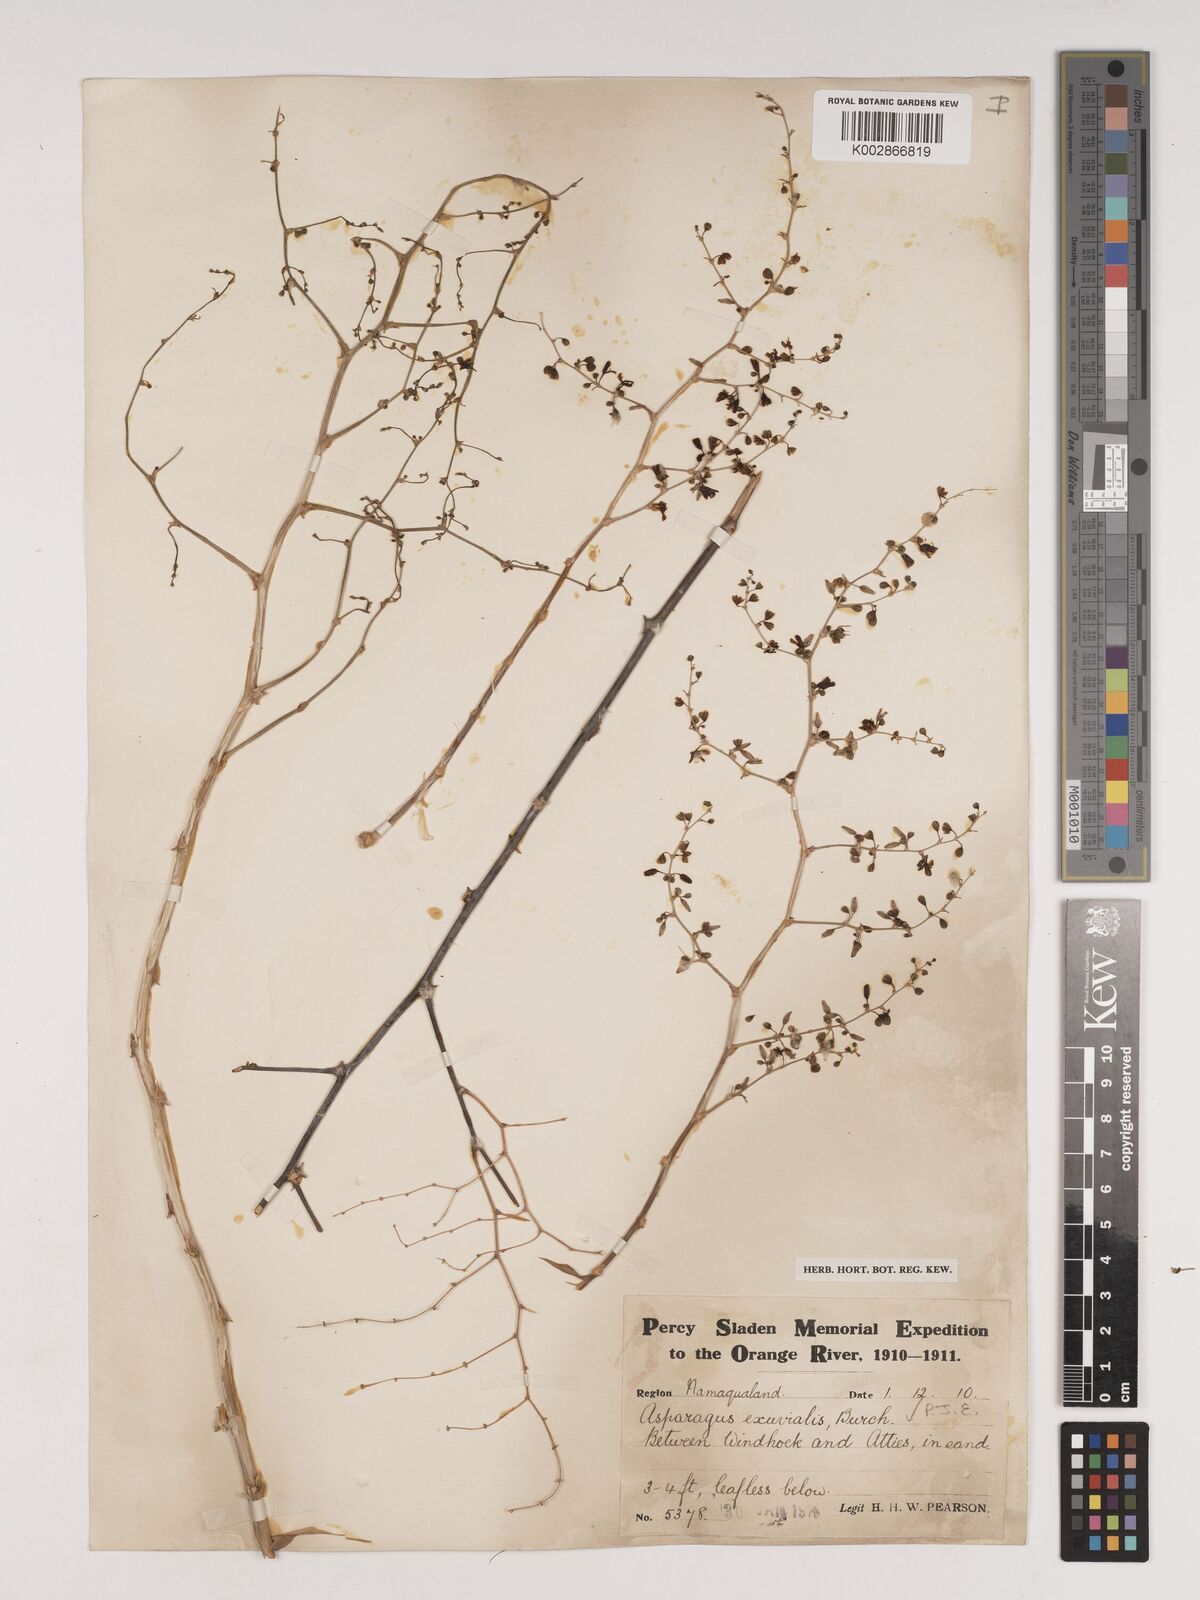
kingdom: Plantae
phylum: Tracheophyta
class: Liliopsida
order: Asparagales
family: Asparagaceae
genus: Asparagus
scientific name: Asparagus exuvialis
